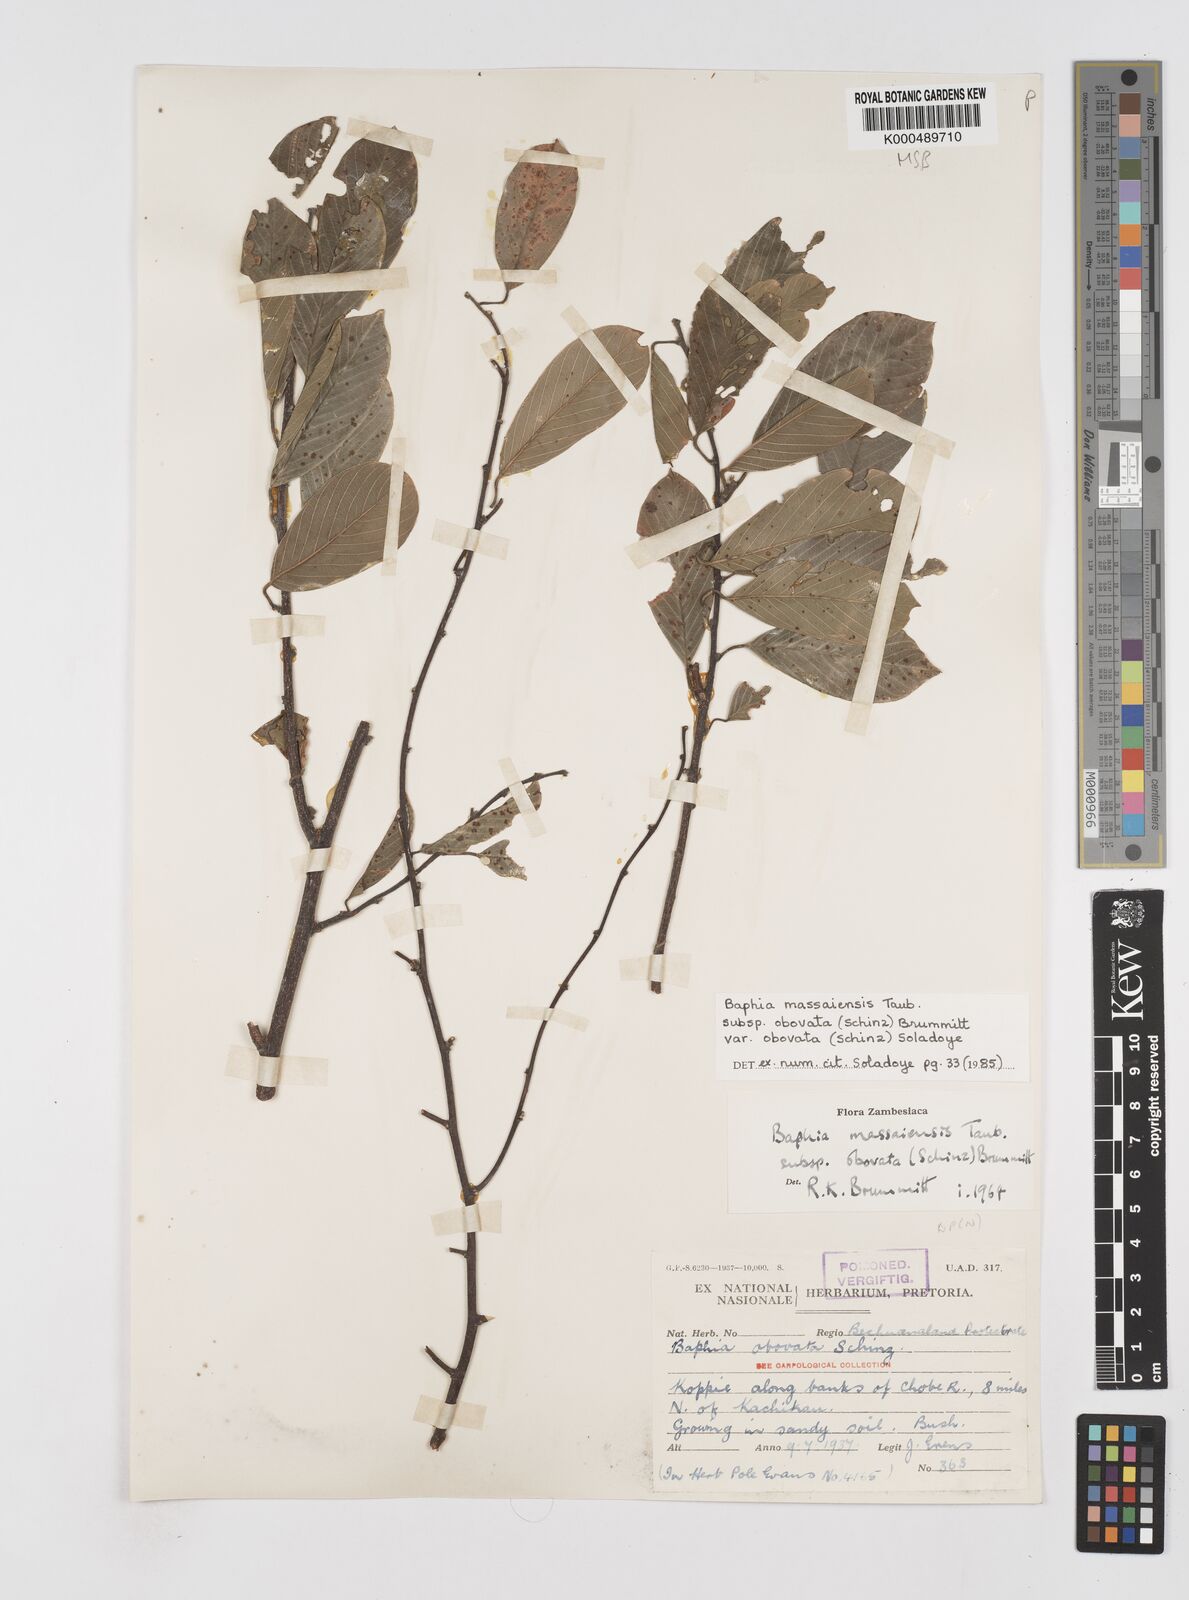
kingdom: Plantae
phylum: Tracheophyta
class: Magnoliopsida
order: Fabales
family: Fabaceae
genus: Baphia
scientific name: Baphia massaiensis
